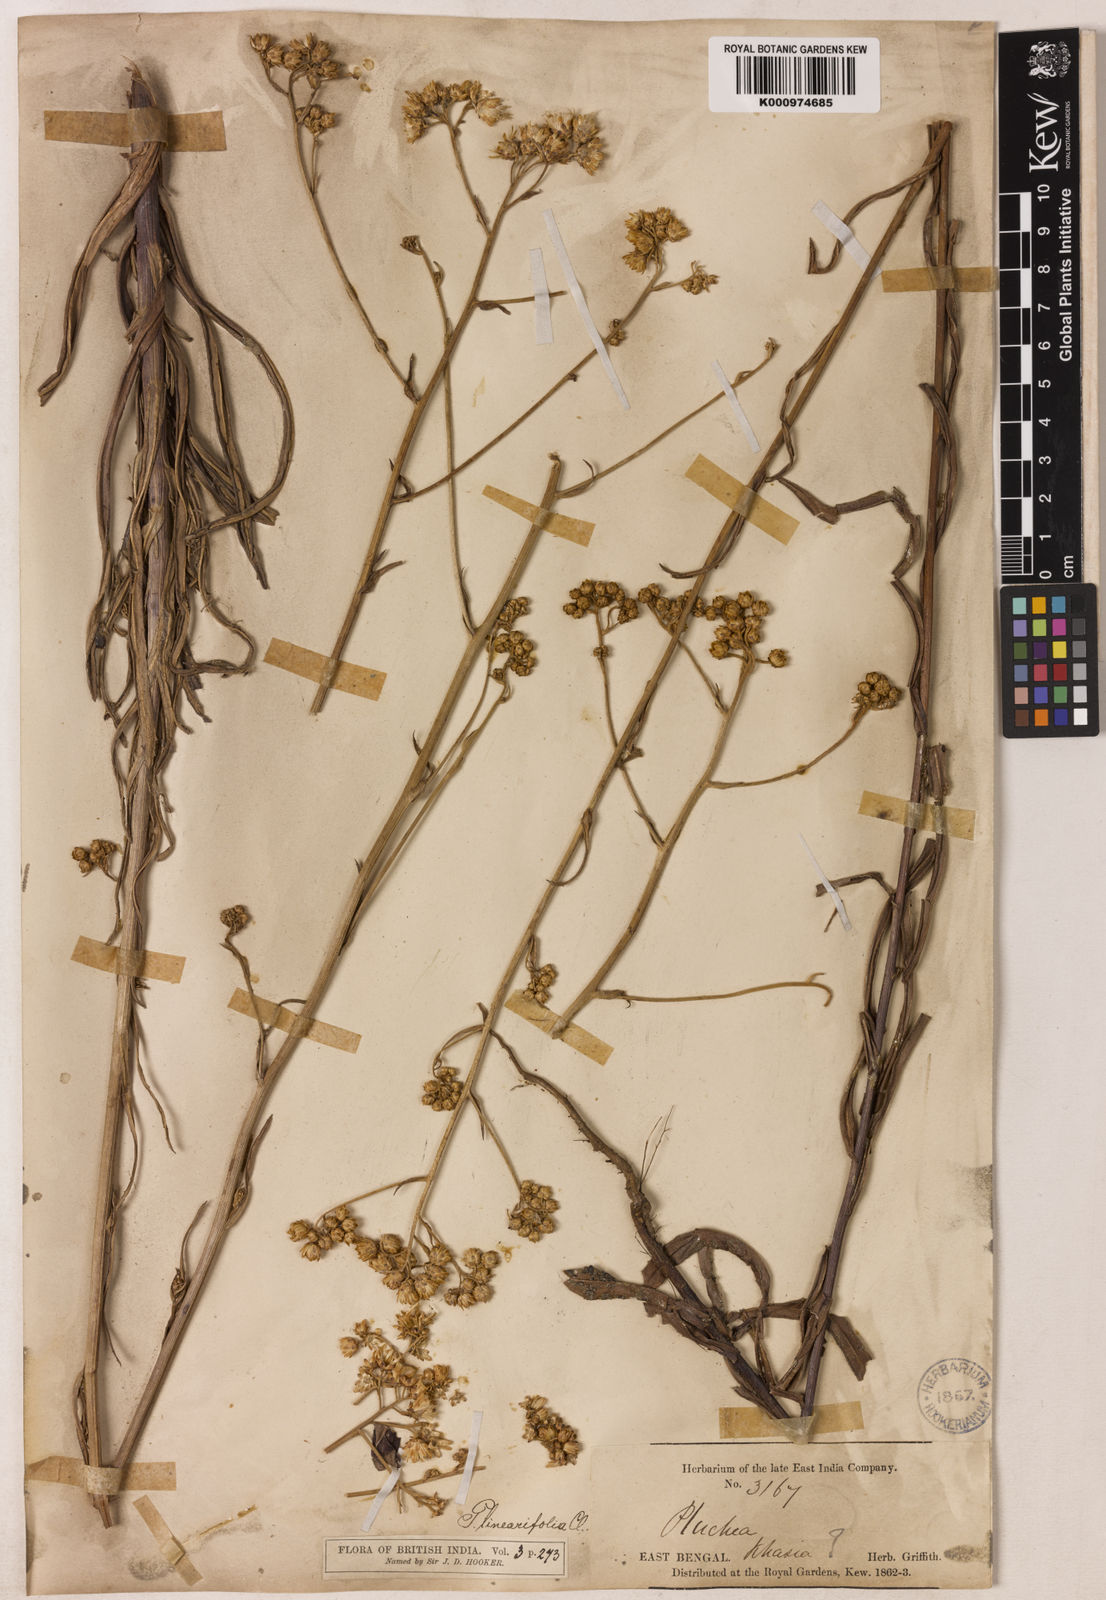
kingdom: Plantae
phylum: Tracheophyta
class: Magnoliopsida
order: Asterales
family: Asteraceae
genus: Pluchea
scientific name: Pluchea linearifolia
